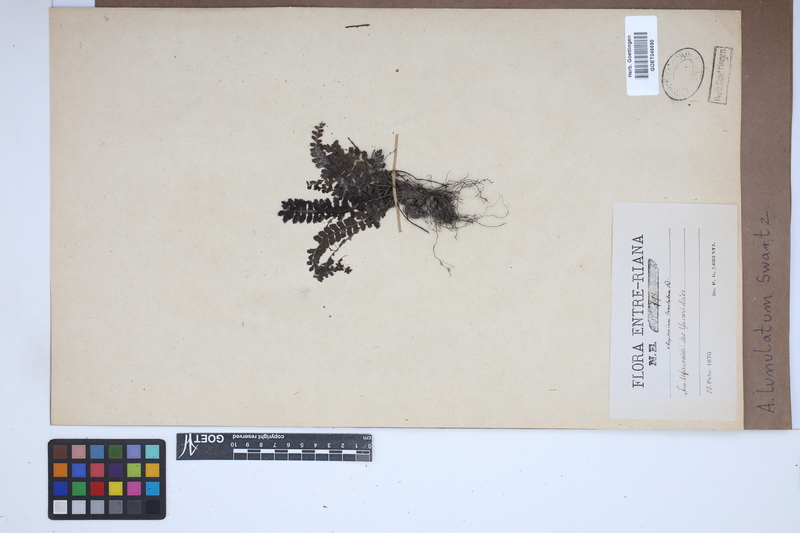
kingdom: Plantae
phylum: Tracheophyta
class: Polypodiopsida
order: Polypodiales
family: Aspleniaceae
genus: Asplenium
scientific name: Asplenium lunulatum
